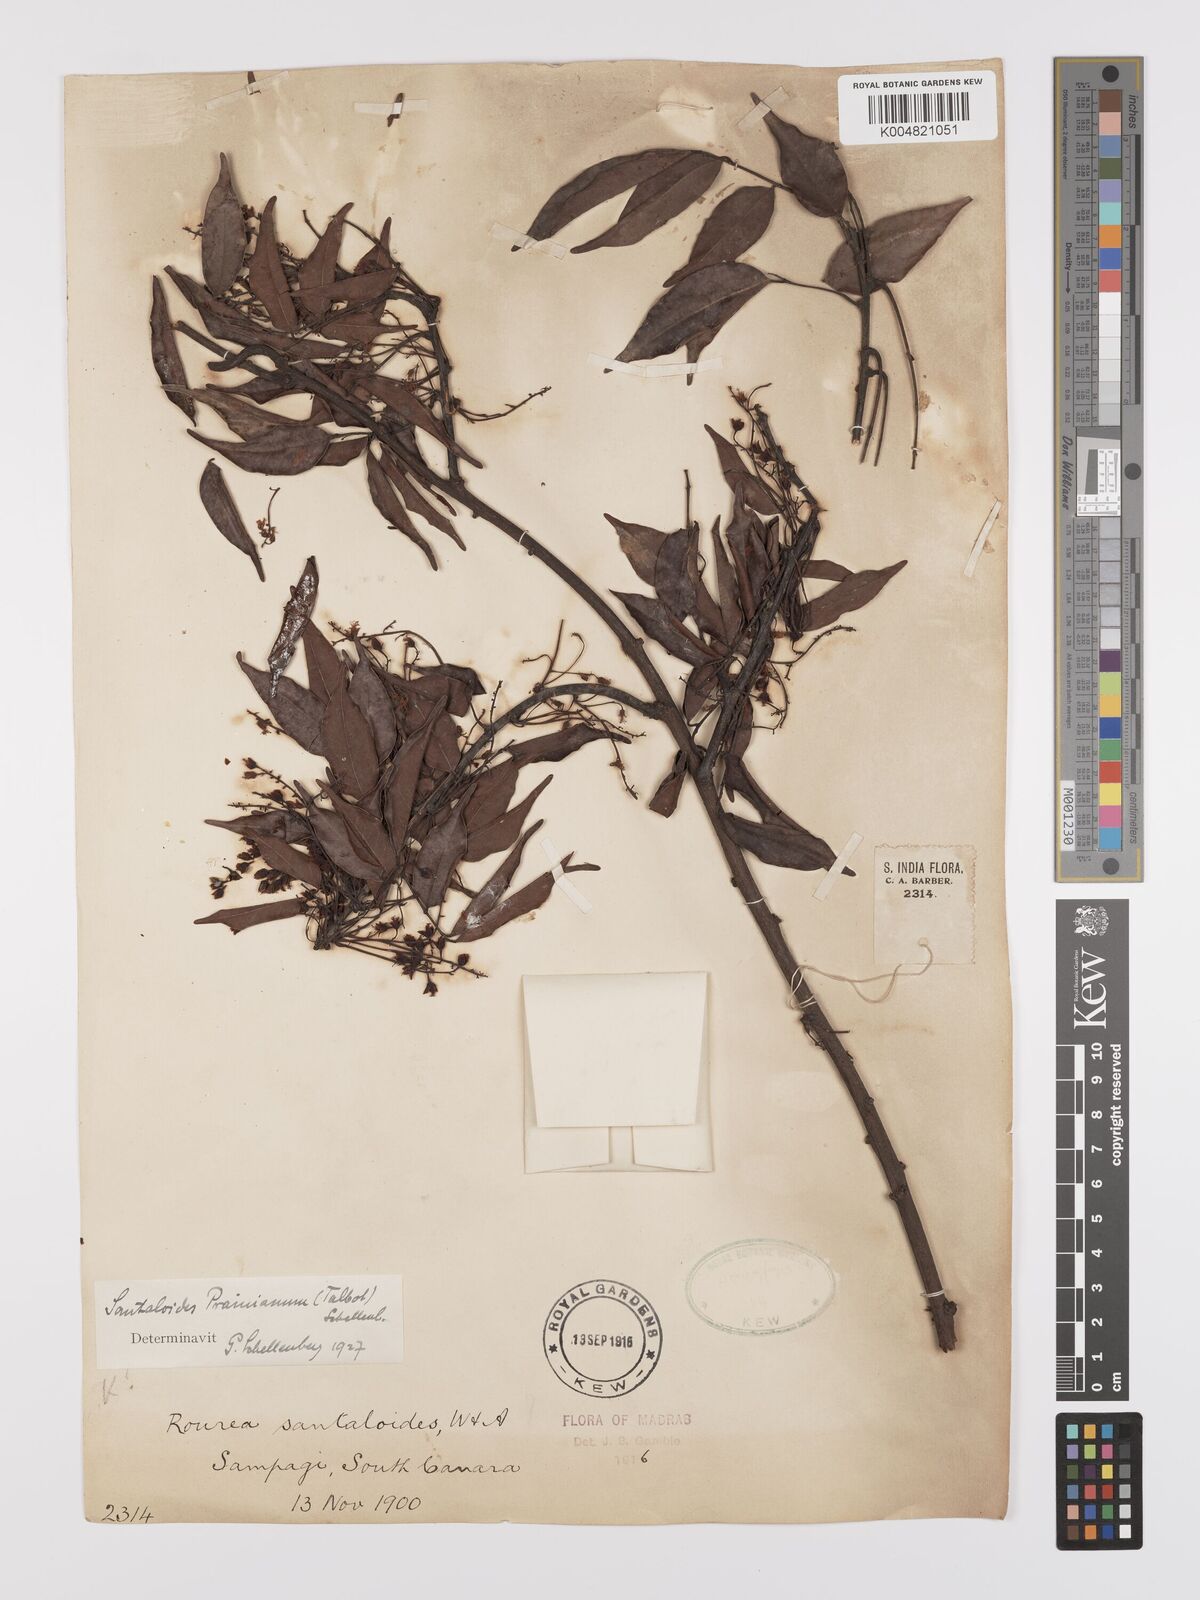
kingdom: Plantae
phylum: Tracheophyta
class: Magnoliopsida
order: Oxalidales
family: Connaraceae
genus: Rourea
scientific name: Rourea prainiana
